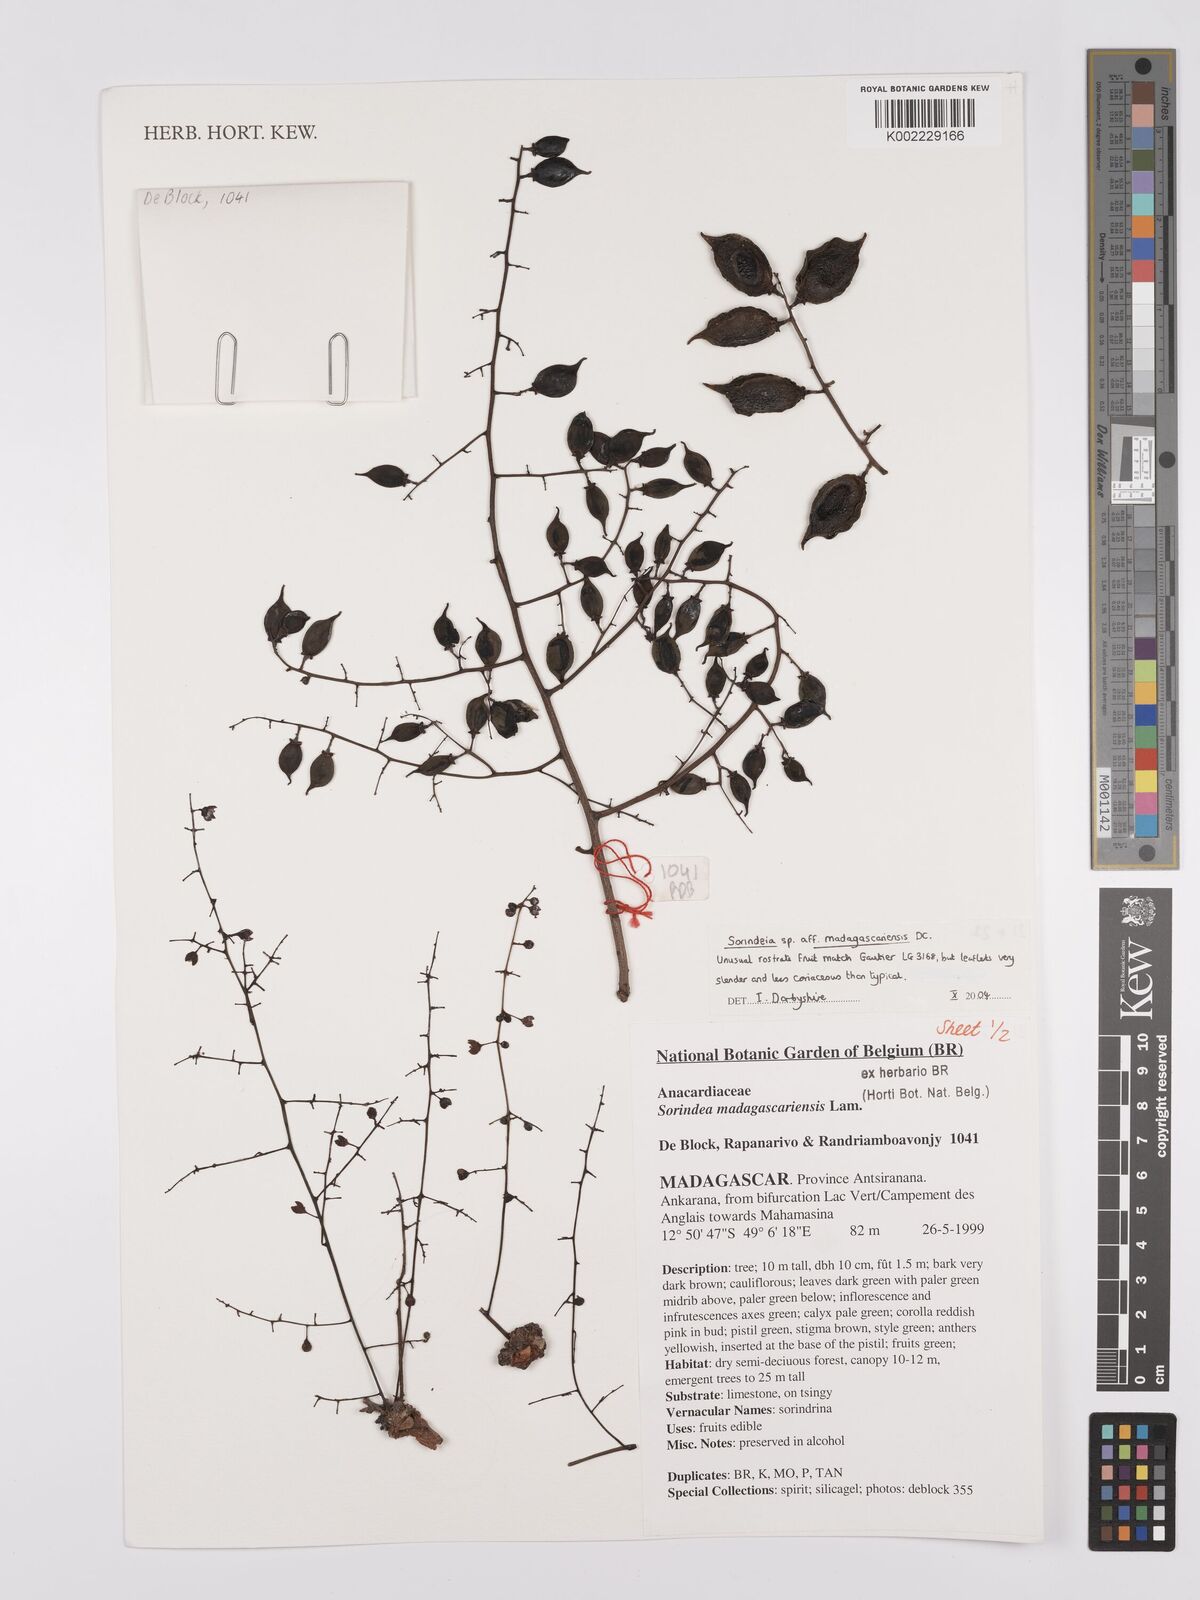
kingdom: Plantae
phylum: Tracheophyta
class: Magnoliopsida
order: Sapindales
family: Anacardiaceae
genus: Sorindeia
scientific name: Sorindeia madagascariensis
